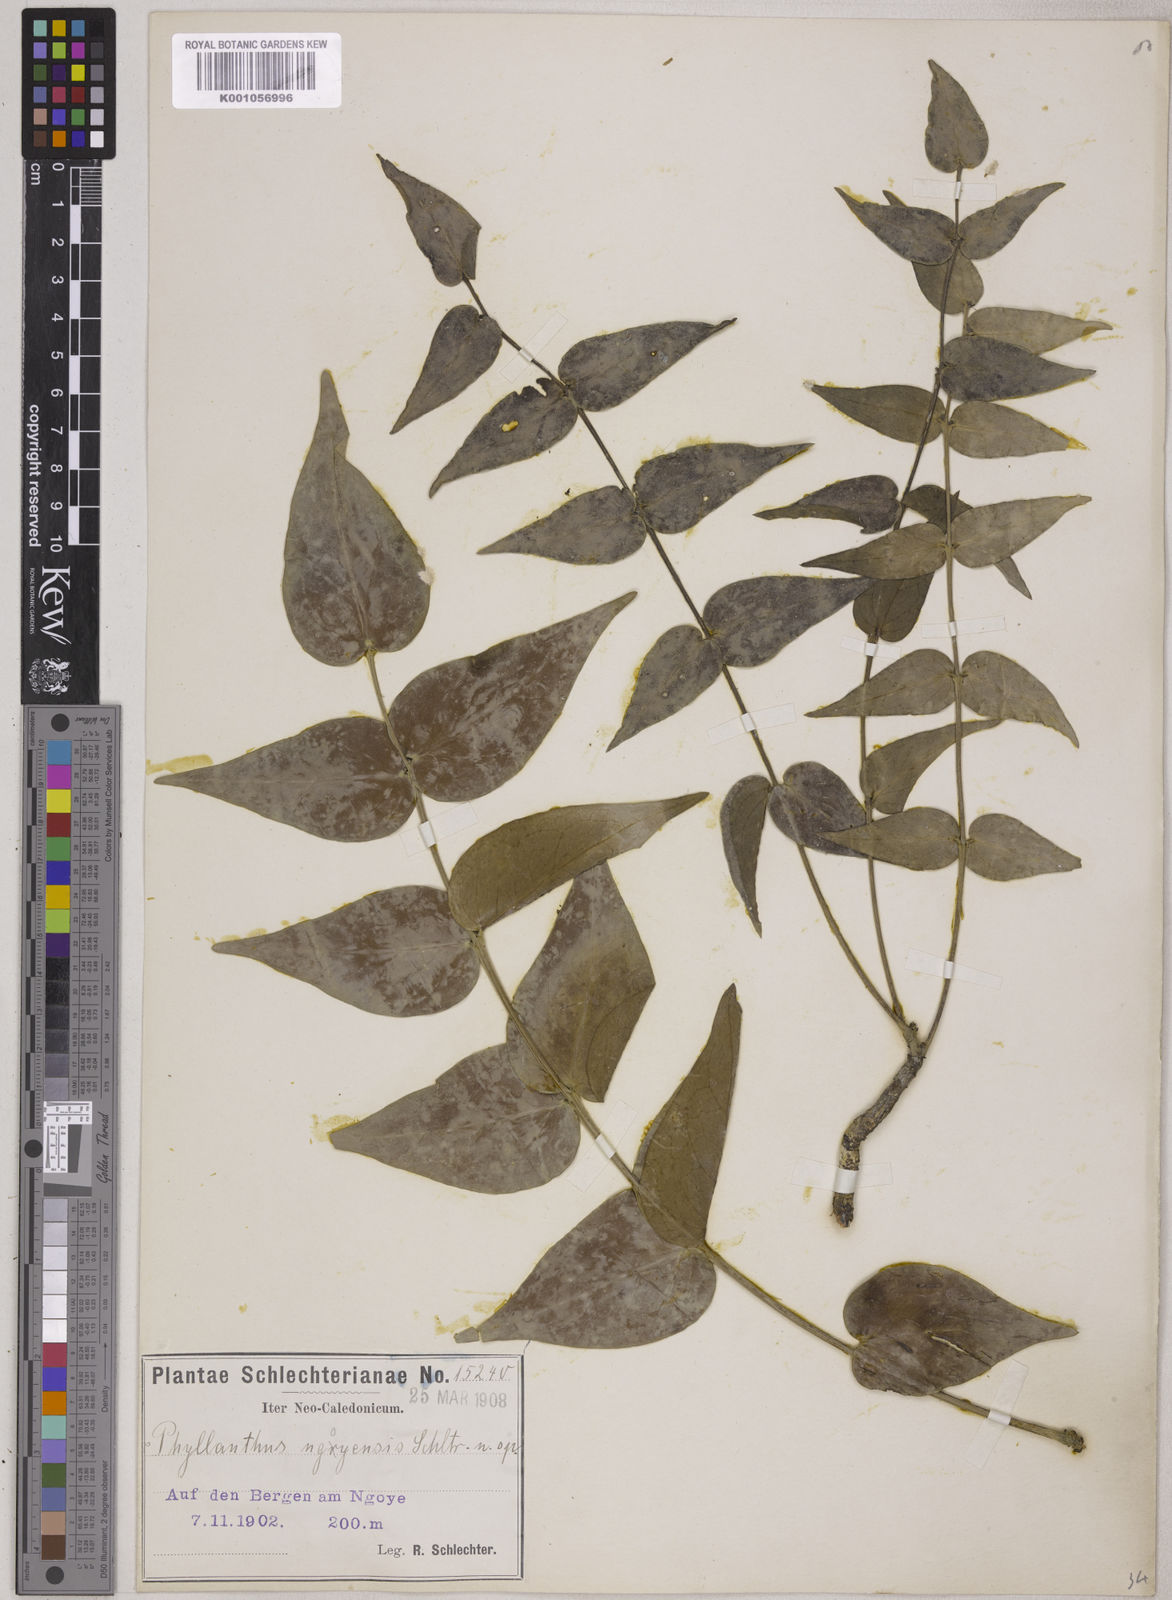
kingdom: Plantae
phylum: Tracheophyta
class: Magnoliopsida
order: Malpighiales
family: Phyllanthaceae
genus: Phyllanthus
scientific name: Phyllanthus bupleuroides
